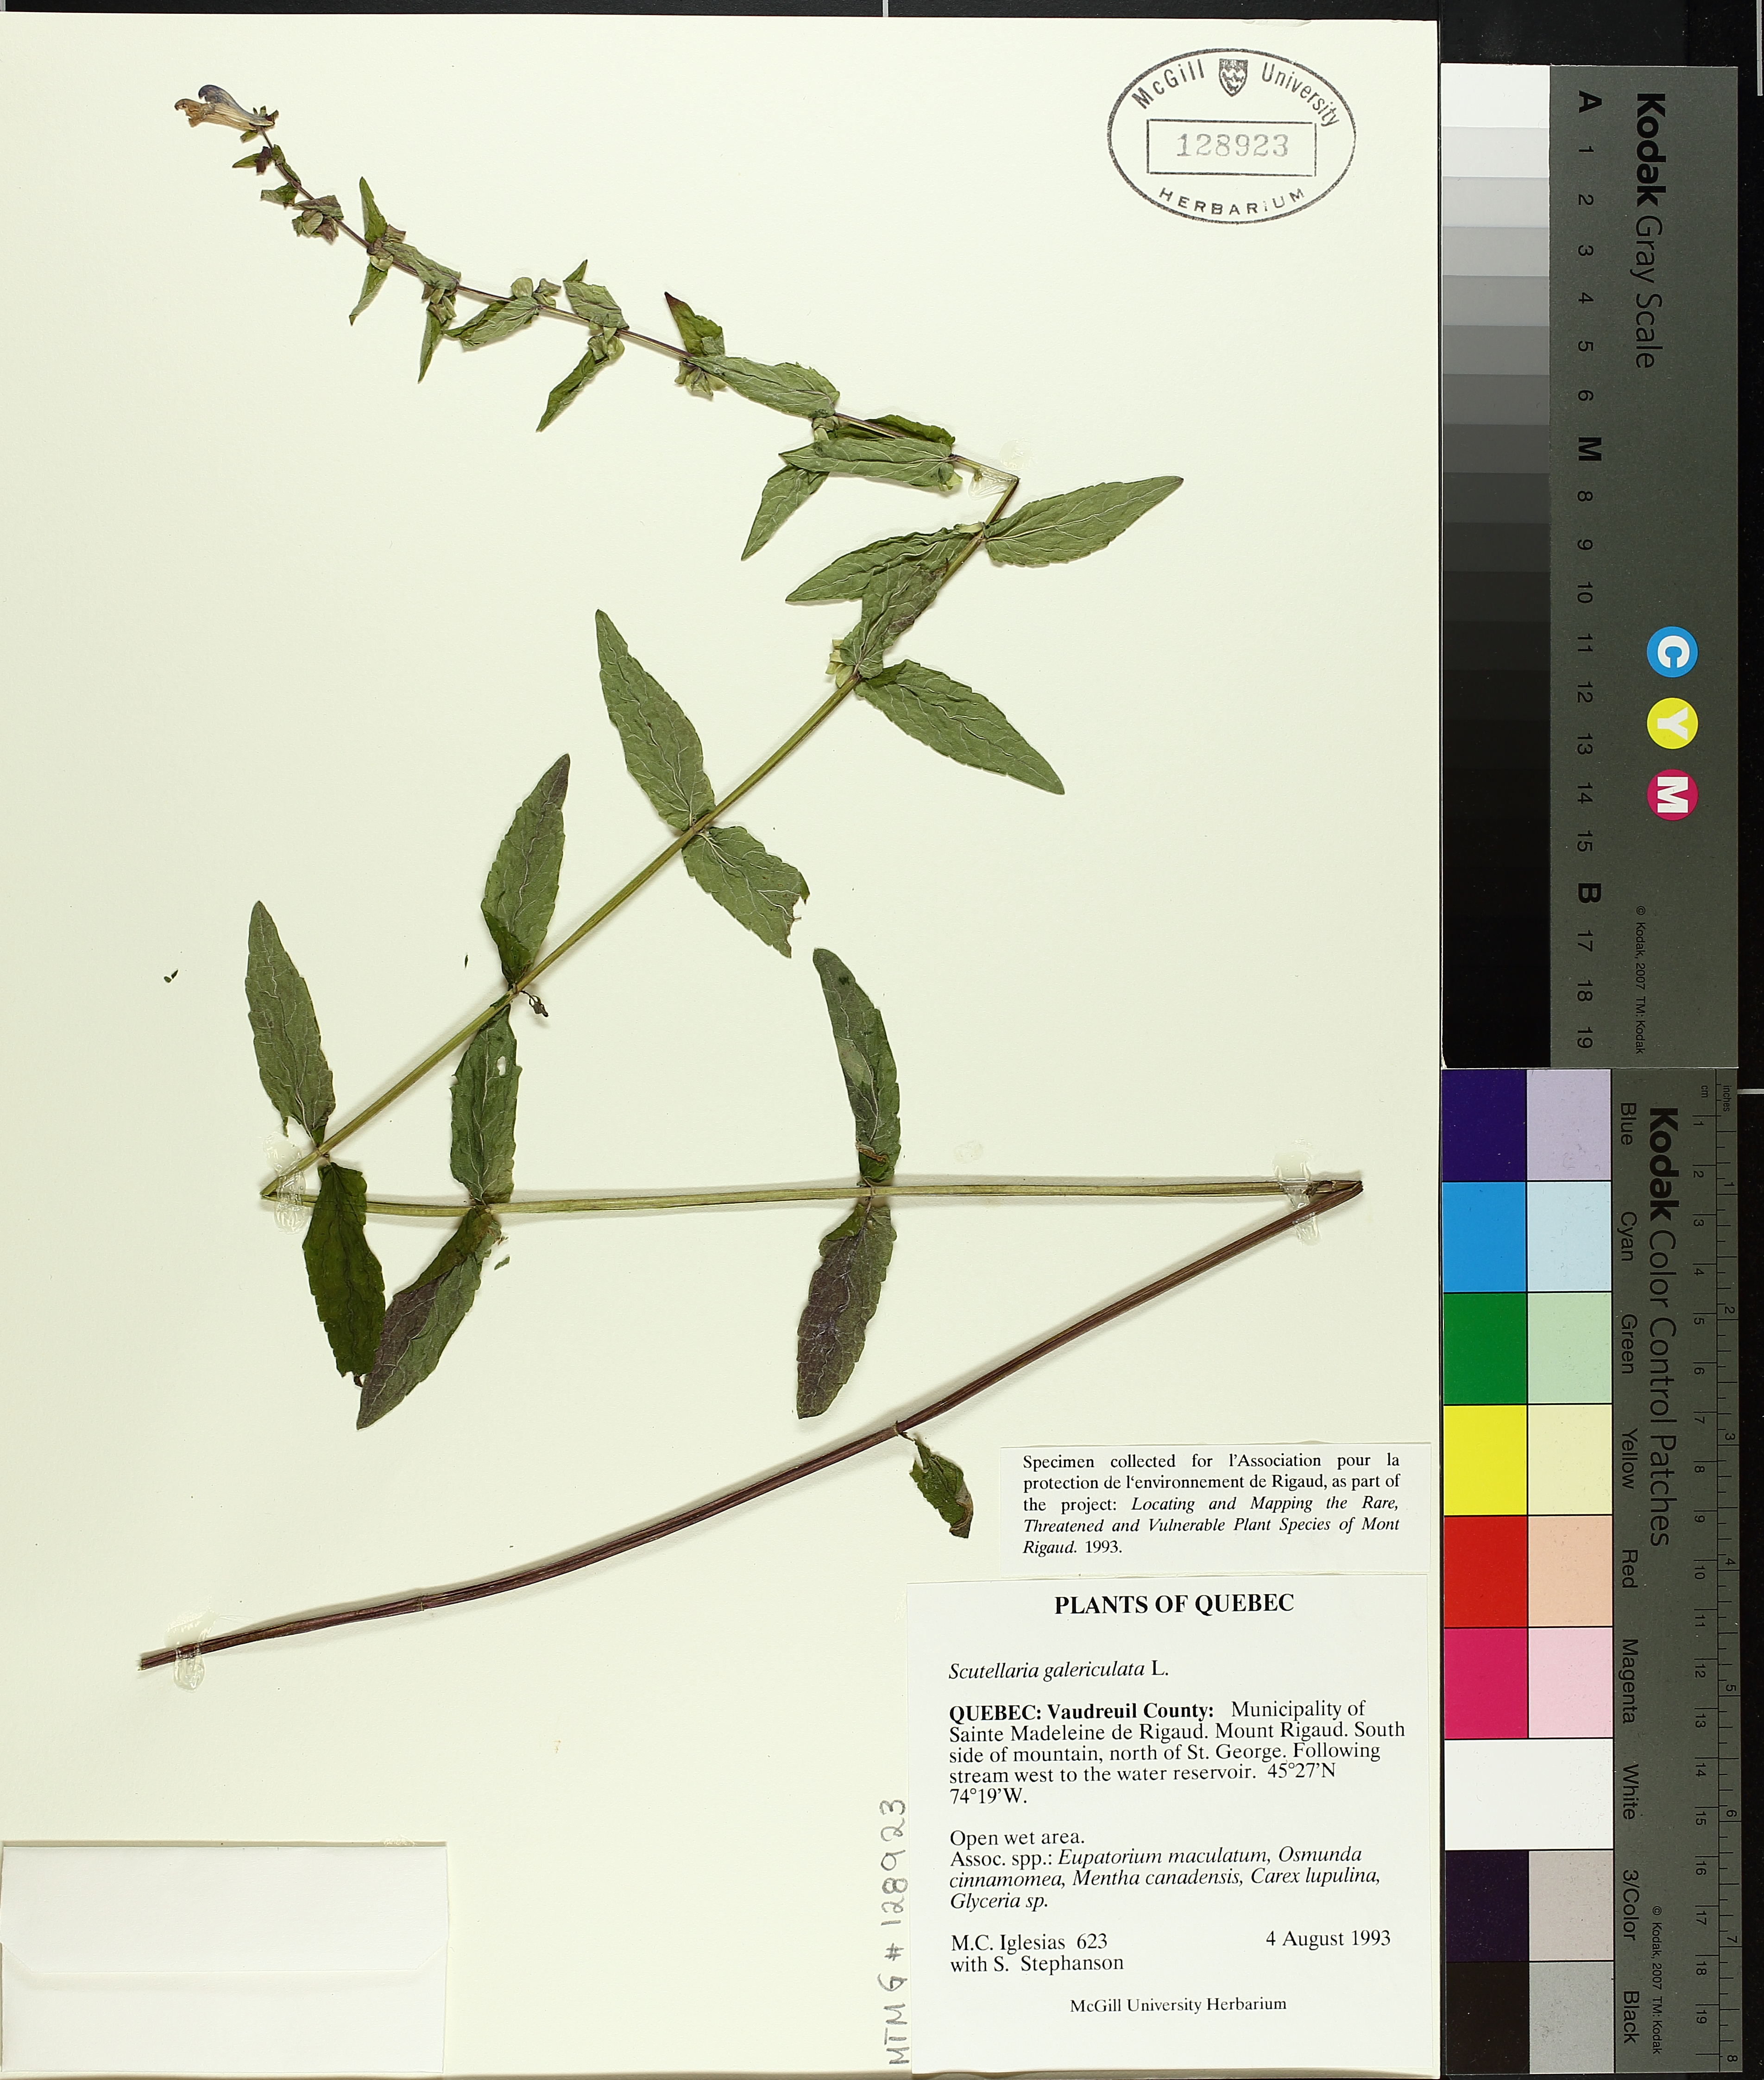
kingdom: Plantae
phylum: Tracheophyta
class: Magnoliopsida
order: Lamiales
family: Lamiaceae
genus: Scutellaria
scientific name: Scutellaria galericulata
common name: Skullcap
